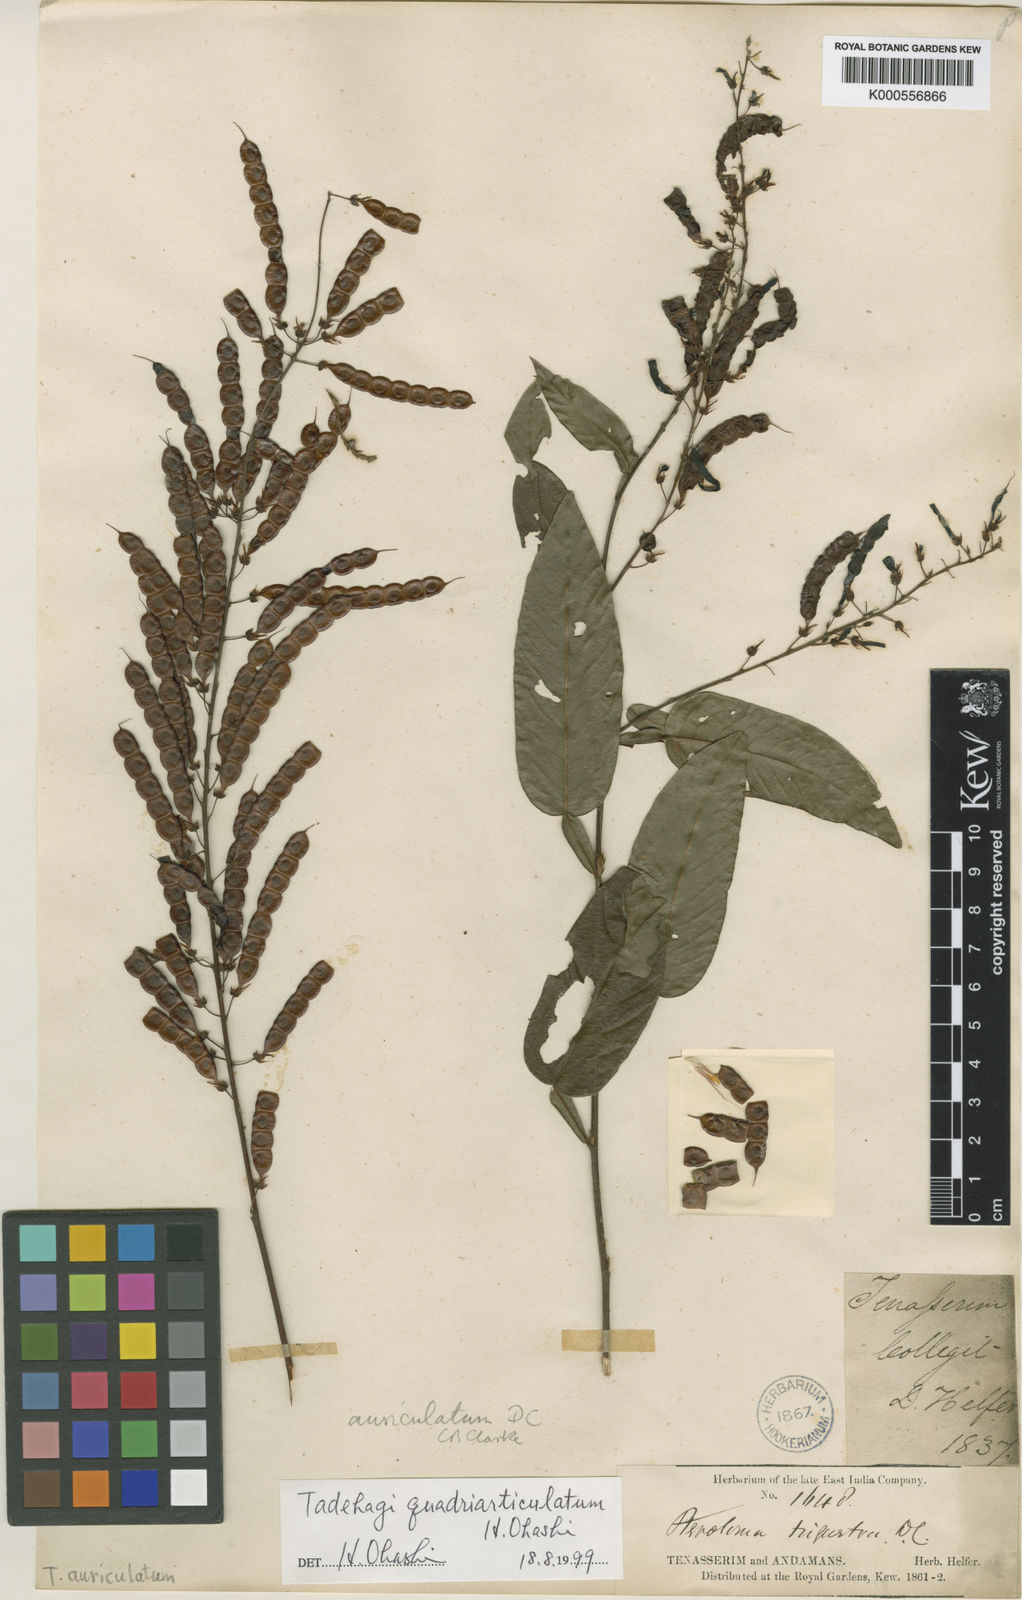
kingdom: Plantae
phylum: Tracheophyta
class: Magnoliopsida
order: Fabales
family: Fabaceae
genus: Tadehagi
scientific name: Tadehagi triquetrum
